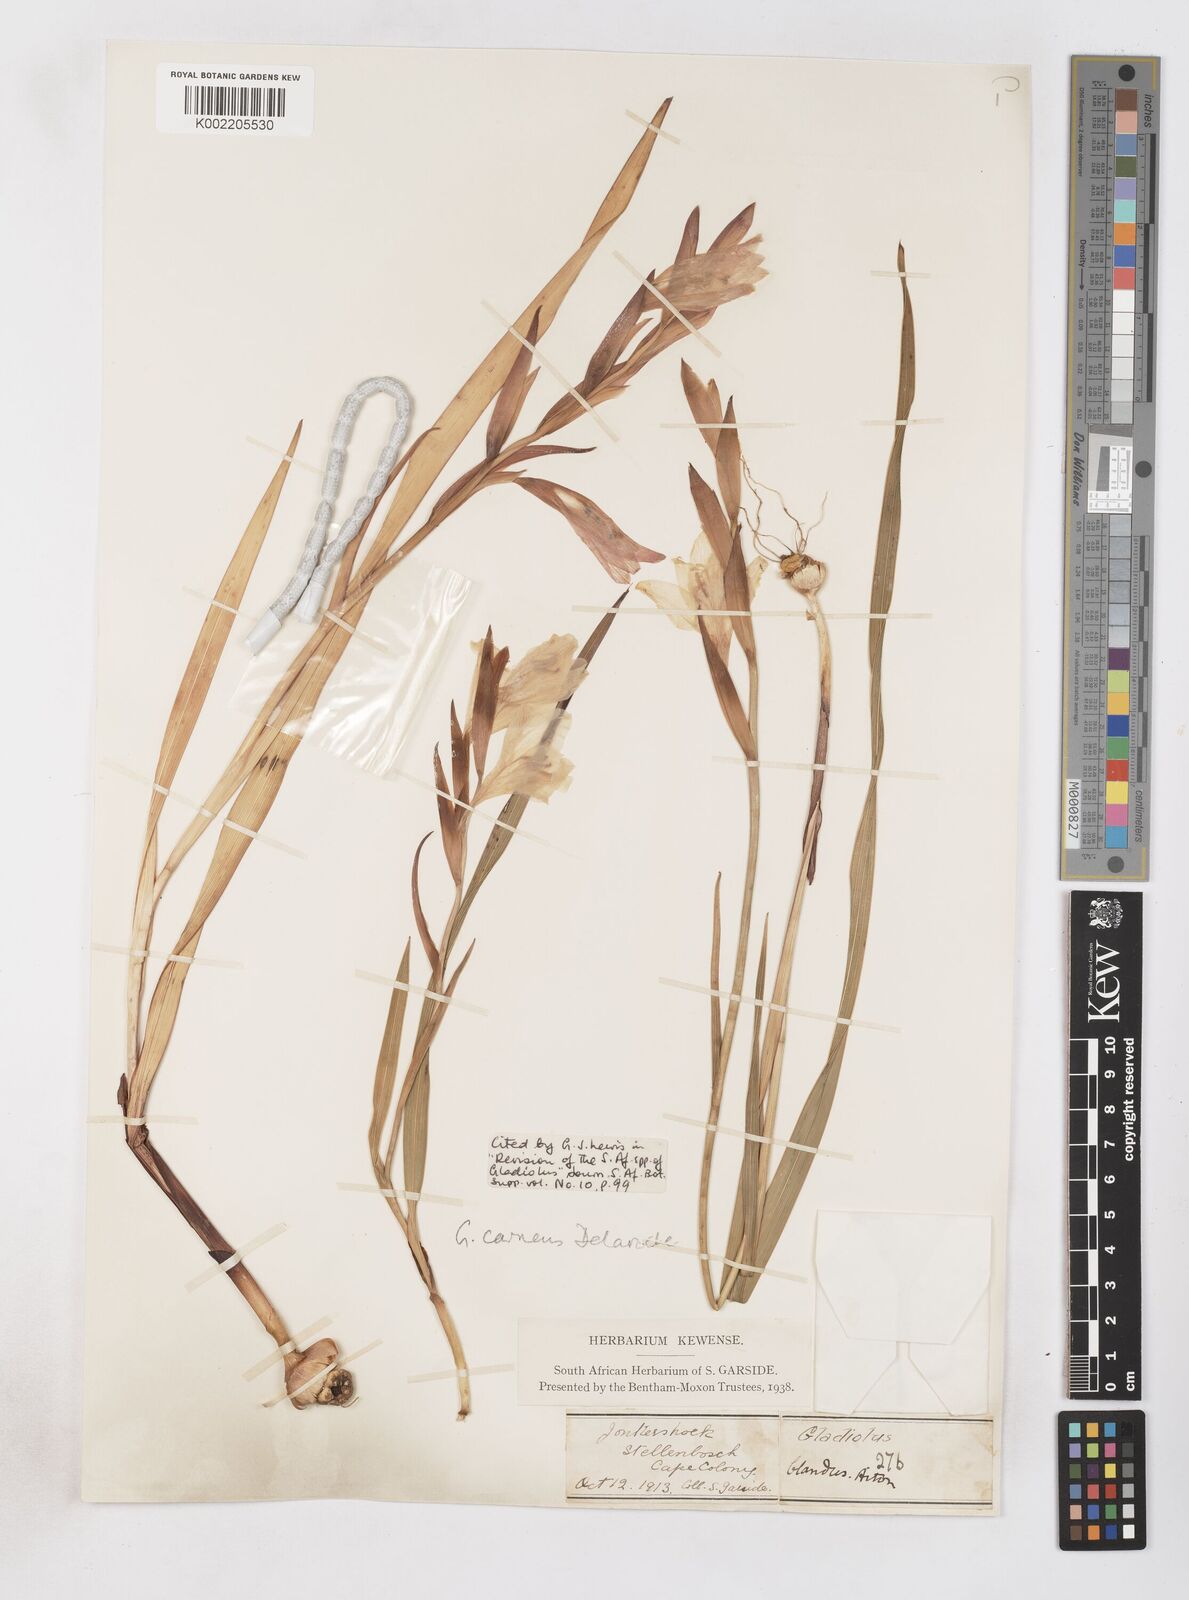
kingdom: Plantae
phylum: Tracheophyta
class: Liliopsida
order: Asparagales
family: Iridaceae
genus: Gladiolus
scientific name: Gladiolus carneus
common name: Painted-lady
